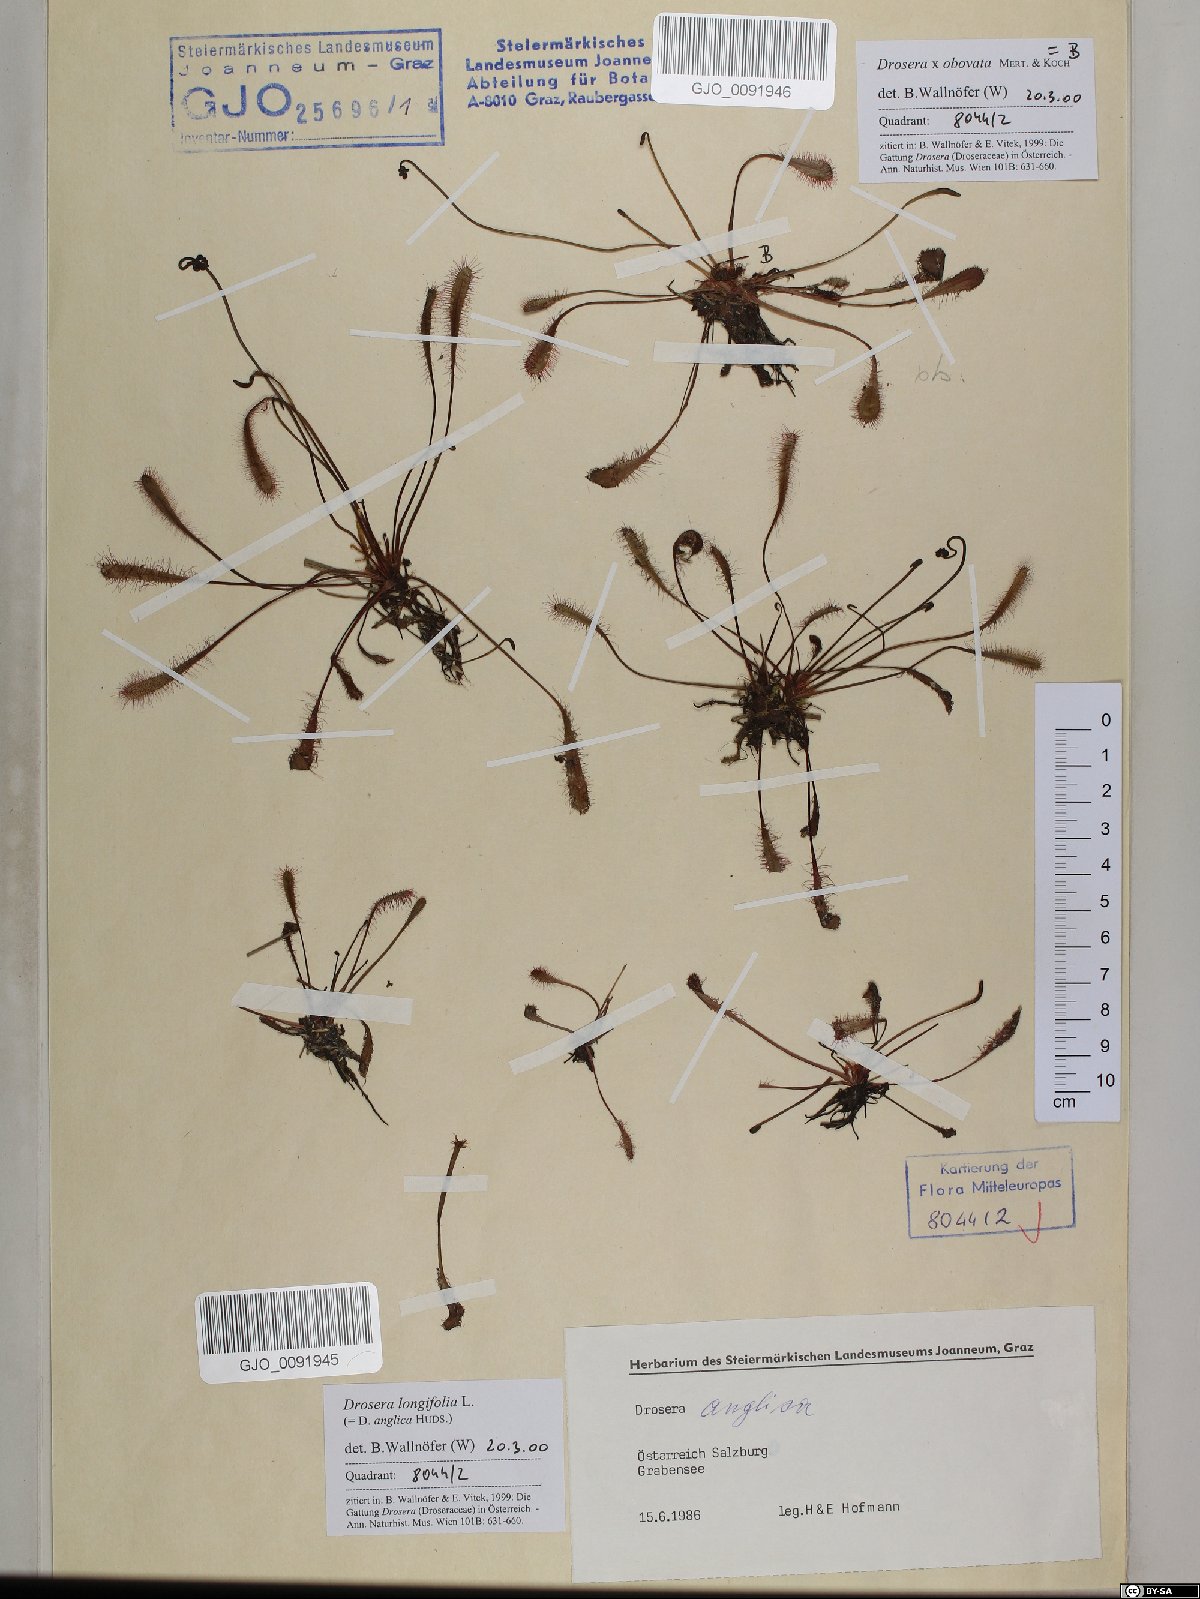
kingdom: Plantae
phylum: Tracheophyta
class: Magnoliopsida
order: Caryophyllales
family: Droseraceae
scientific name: Droseraceae
